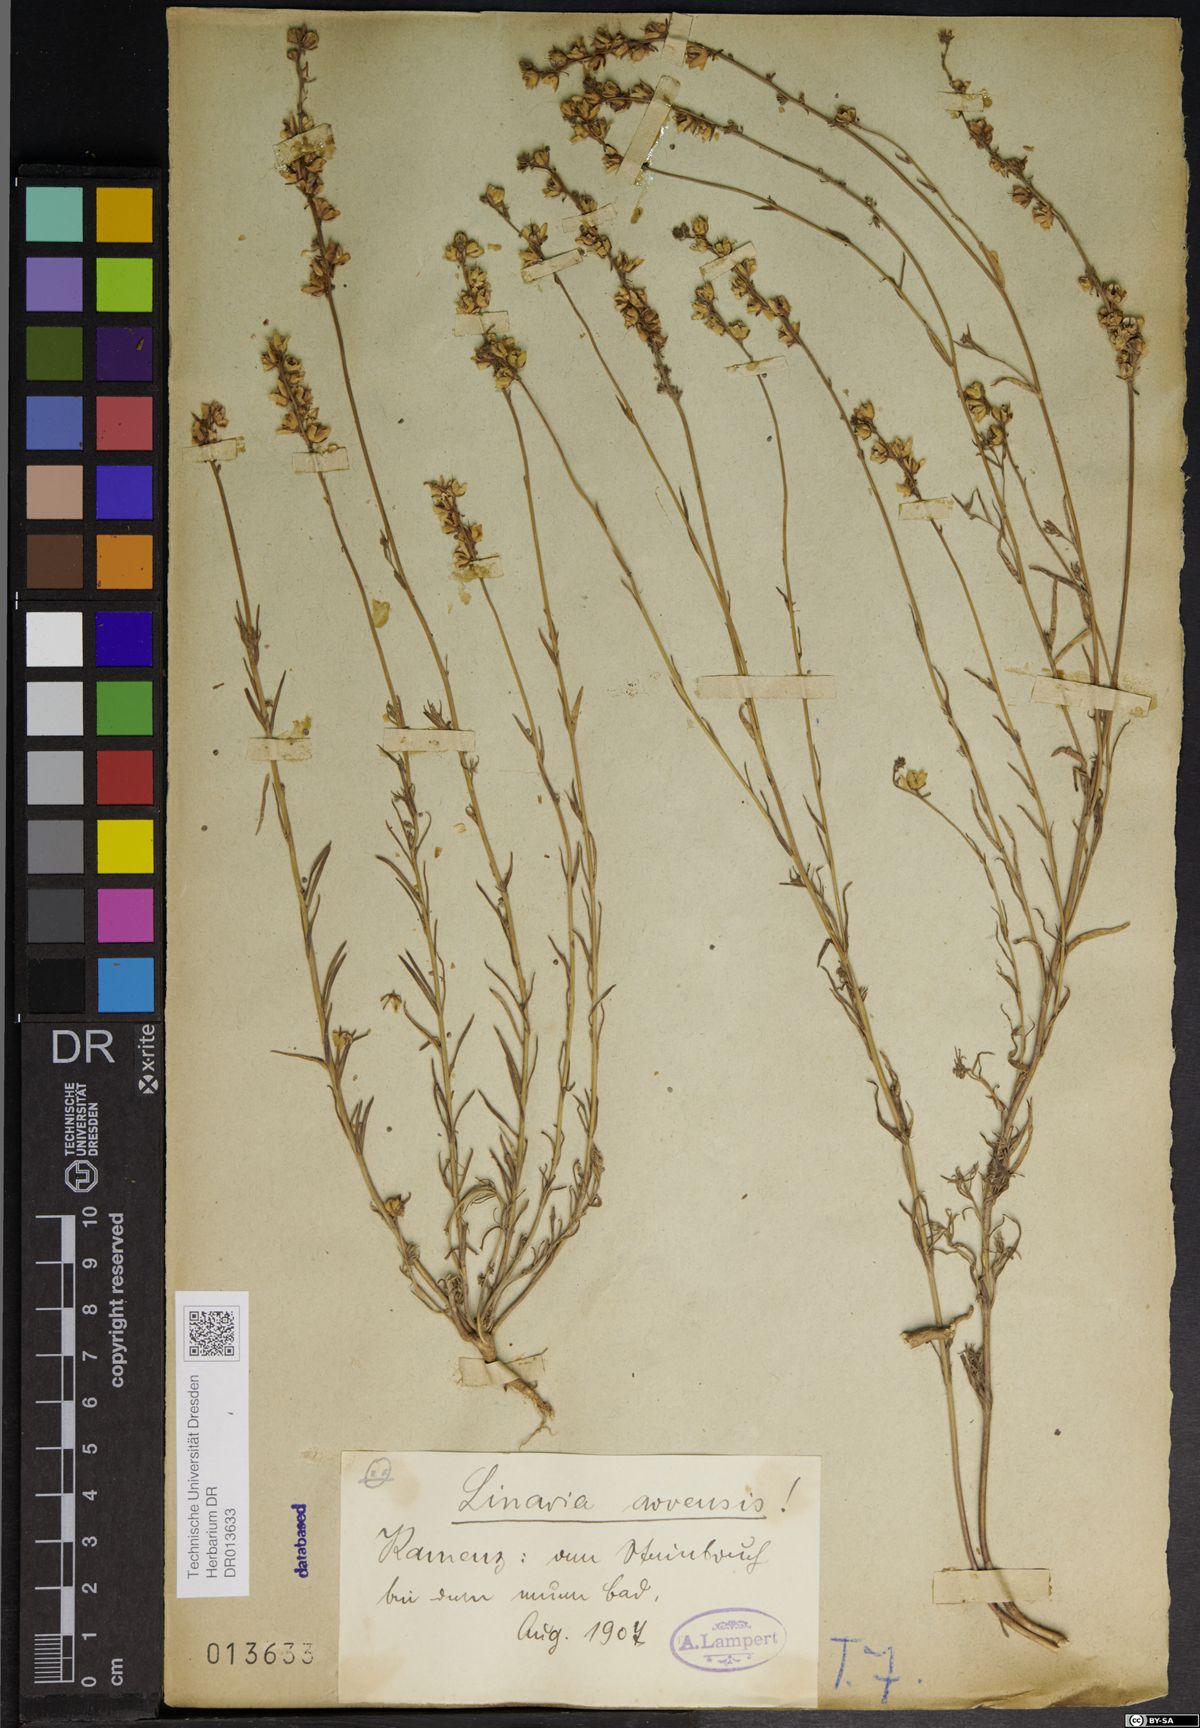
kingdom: Plantae
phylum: Tracheophyta
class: Magnoliopsida
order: Lamiales
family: Plantaginaceae
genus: Linaria
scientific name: Linaria arvensis
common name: Corn toadflax
